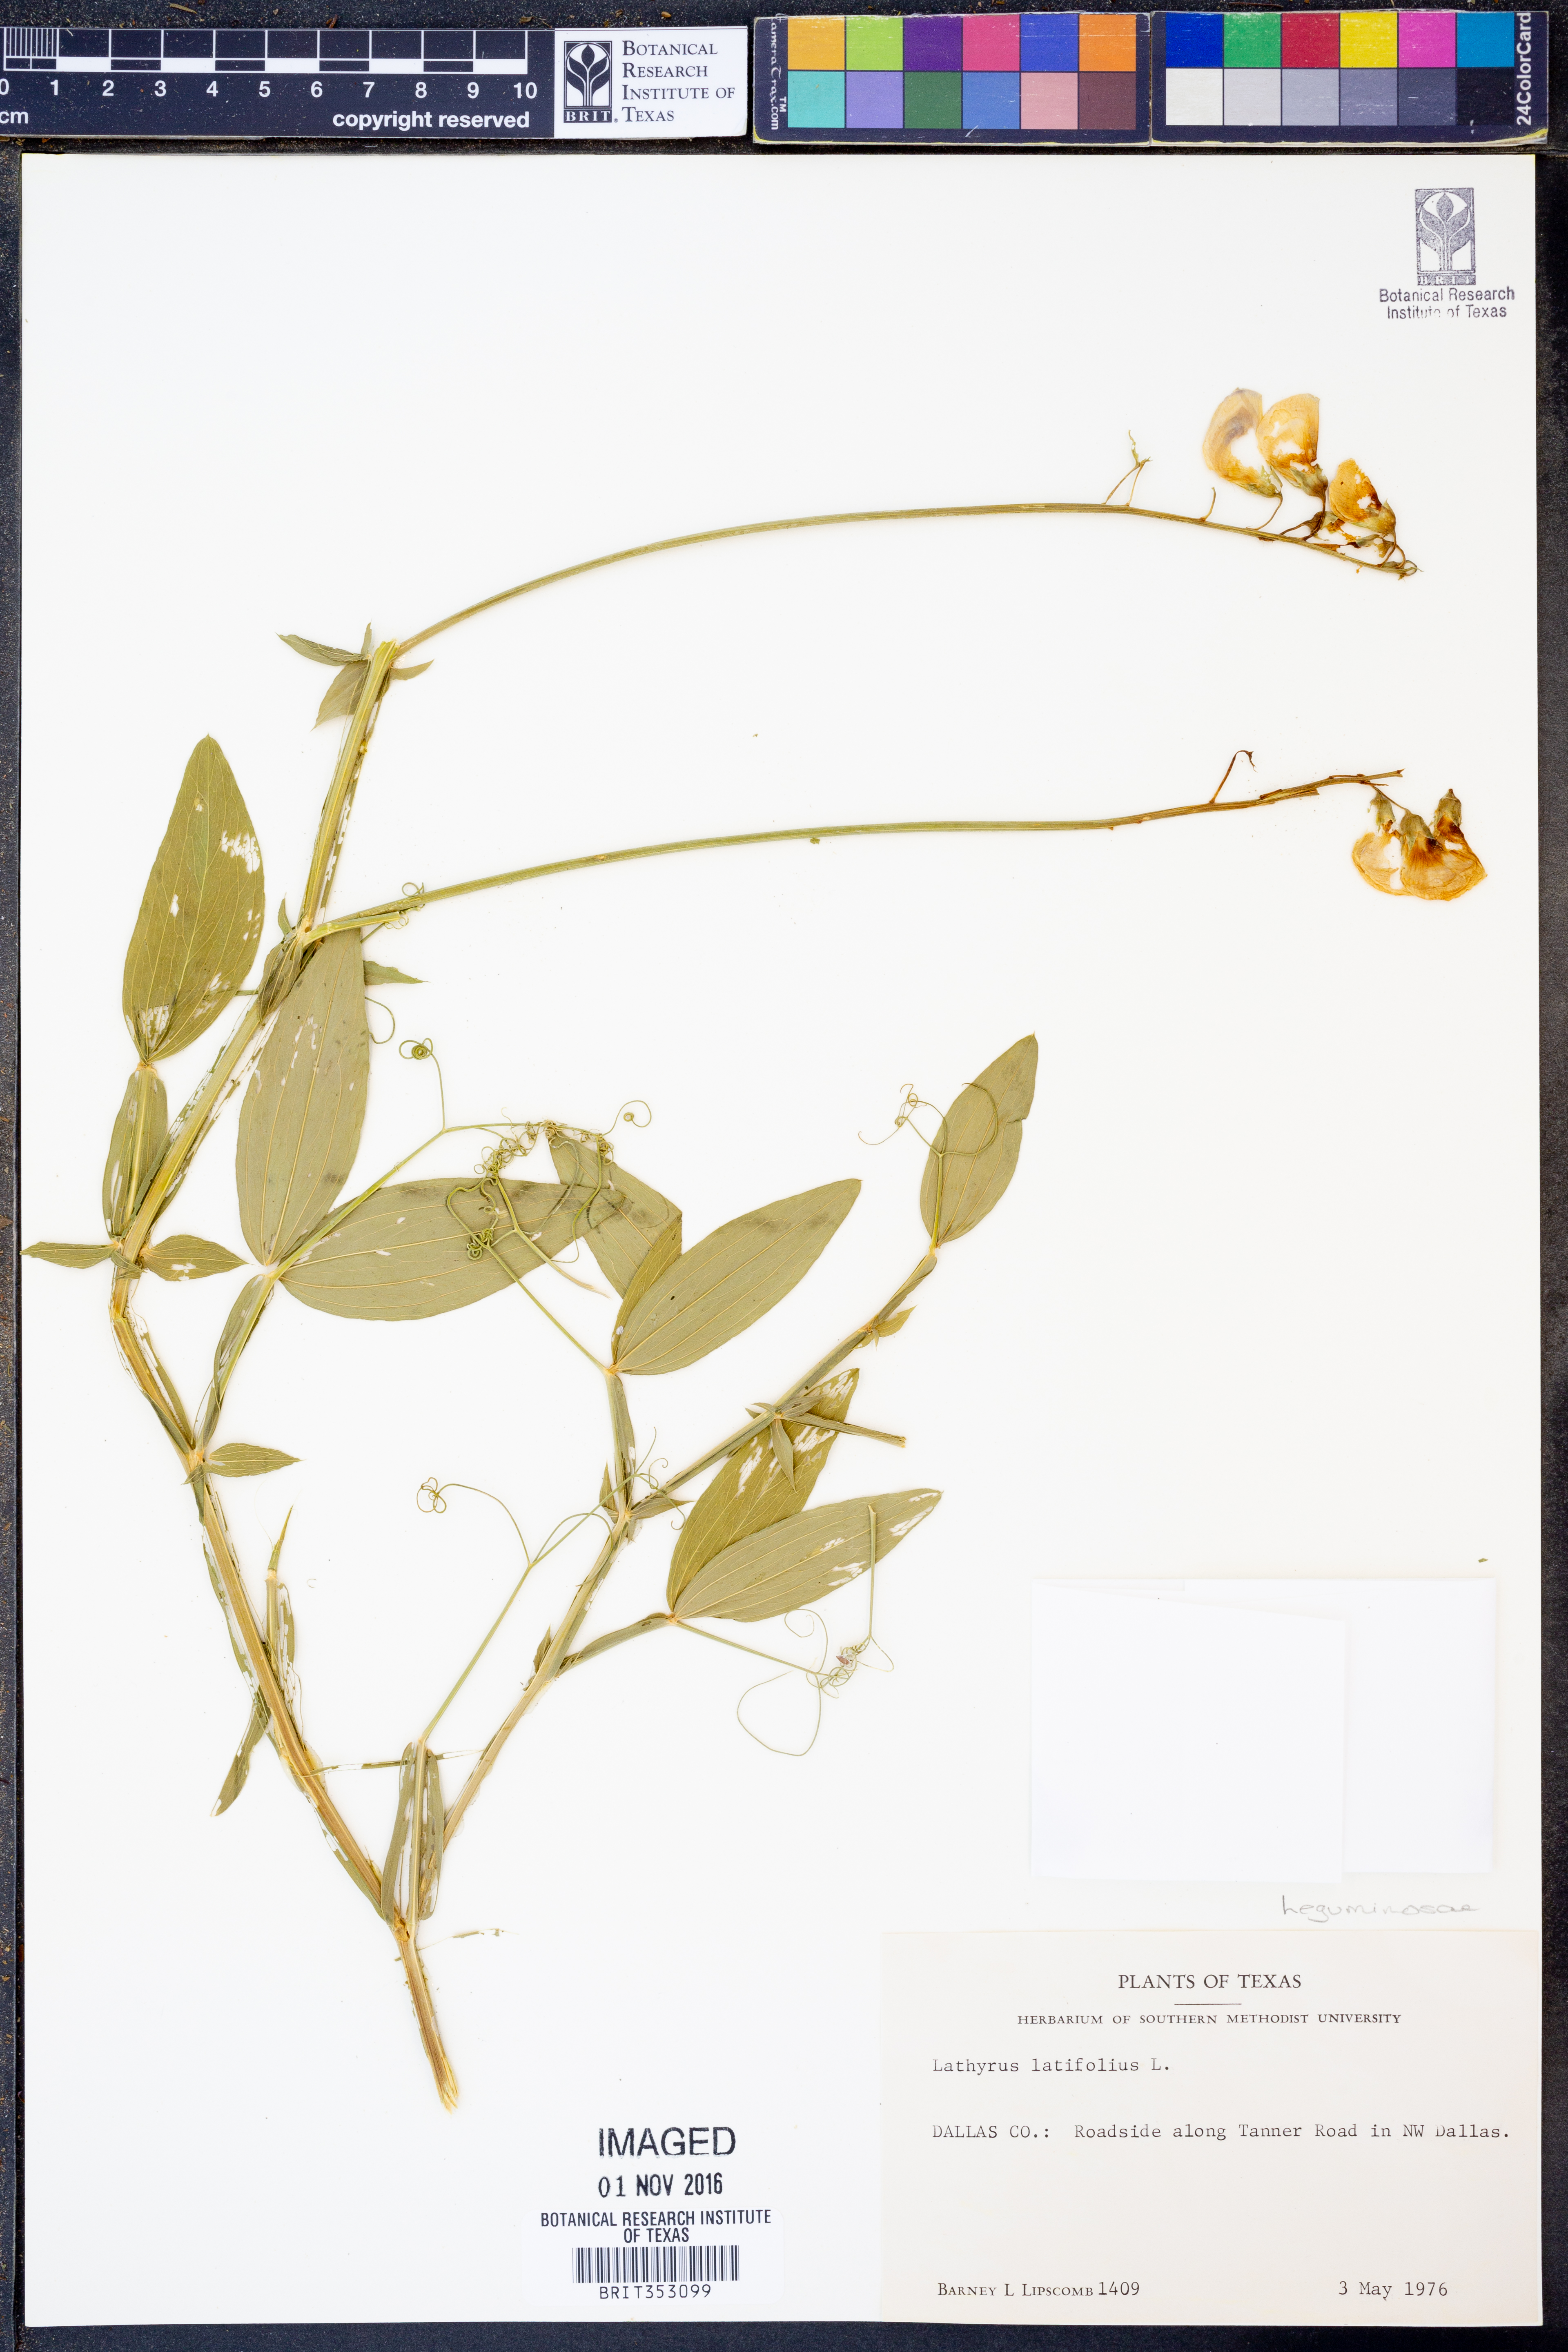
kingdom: Plantae
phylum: Tracheophyta
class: Magnoliopsida
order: Fabales
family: Fabaceae
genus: Lathyrus
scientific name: Lathyrus latifolius
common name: Perennial pea
